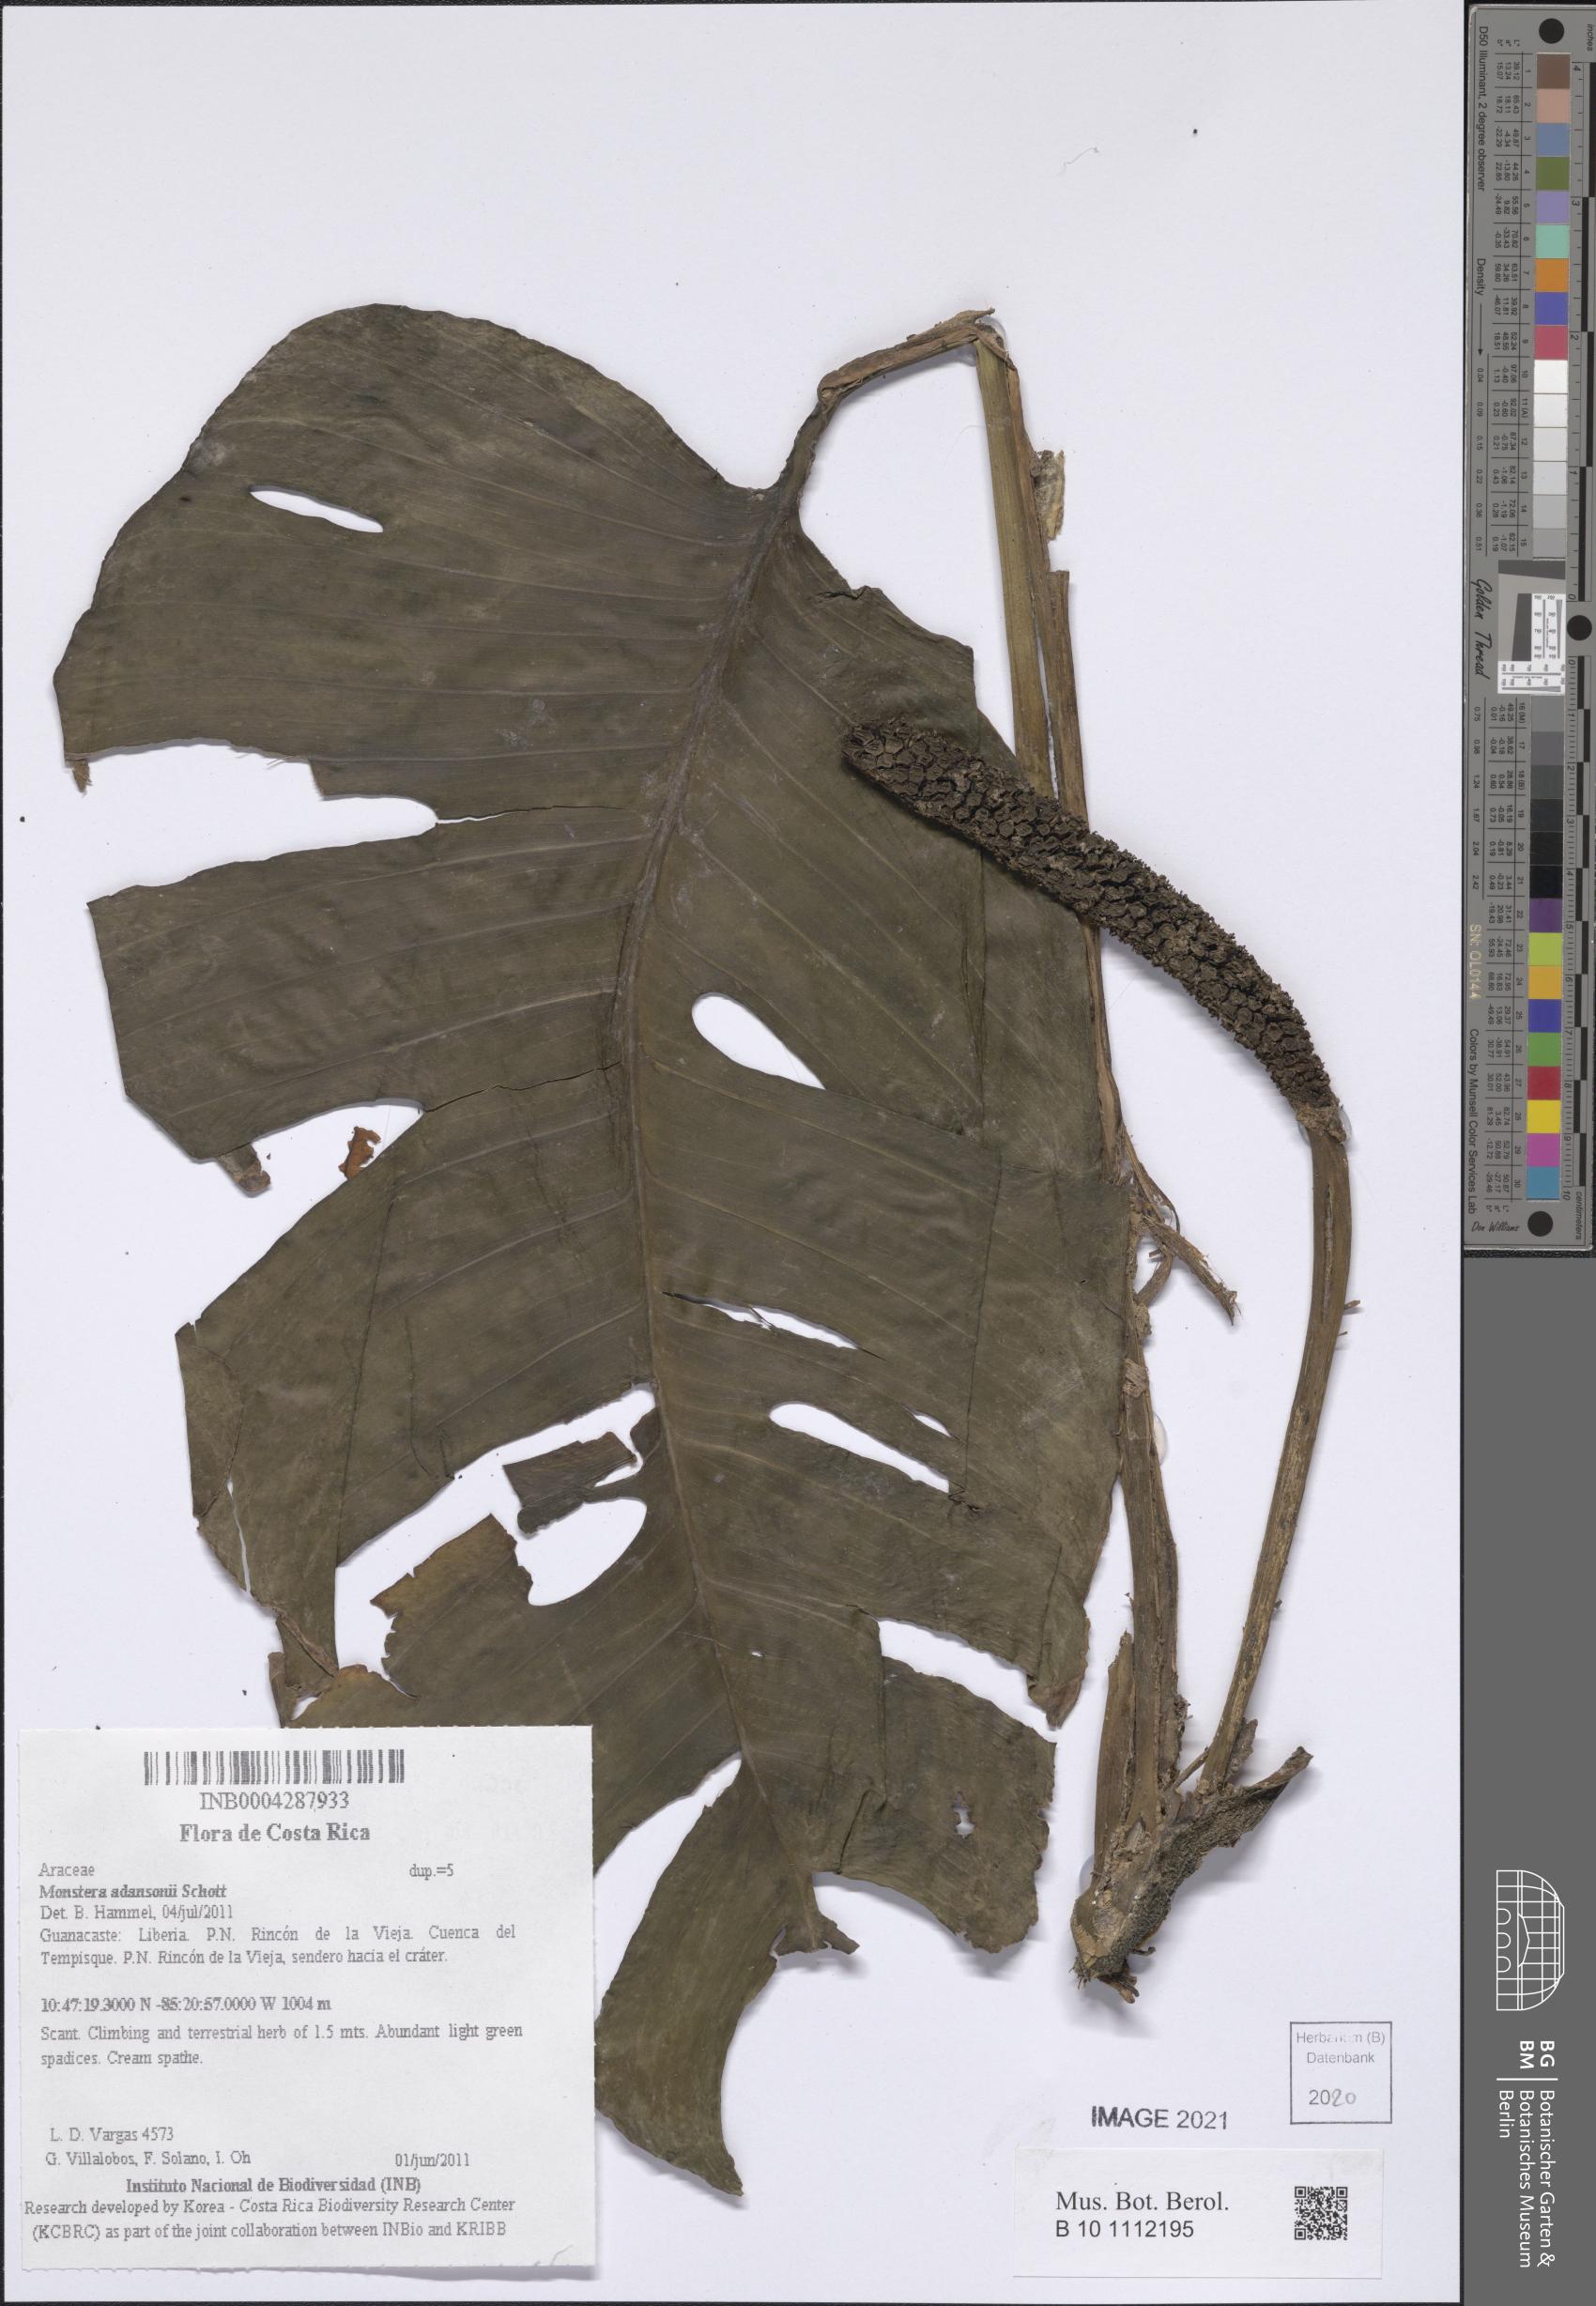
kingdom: Plantae
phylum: Tracheophyta
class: Liliopsida
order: Alismatales
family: Araceae
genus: Monstera
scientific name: Monstera adansonii
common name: Tarovine
